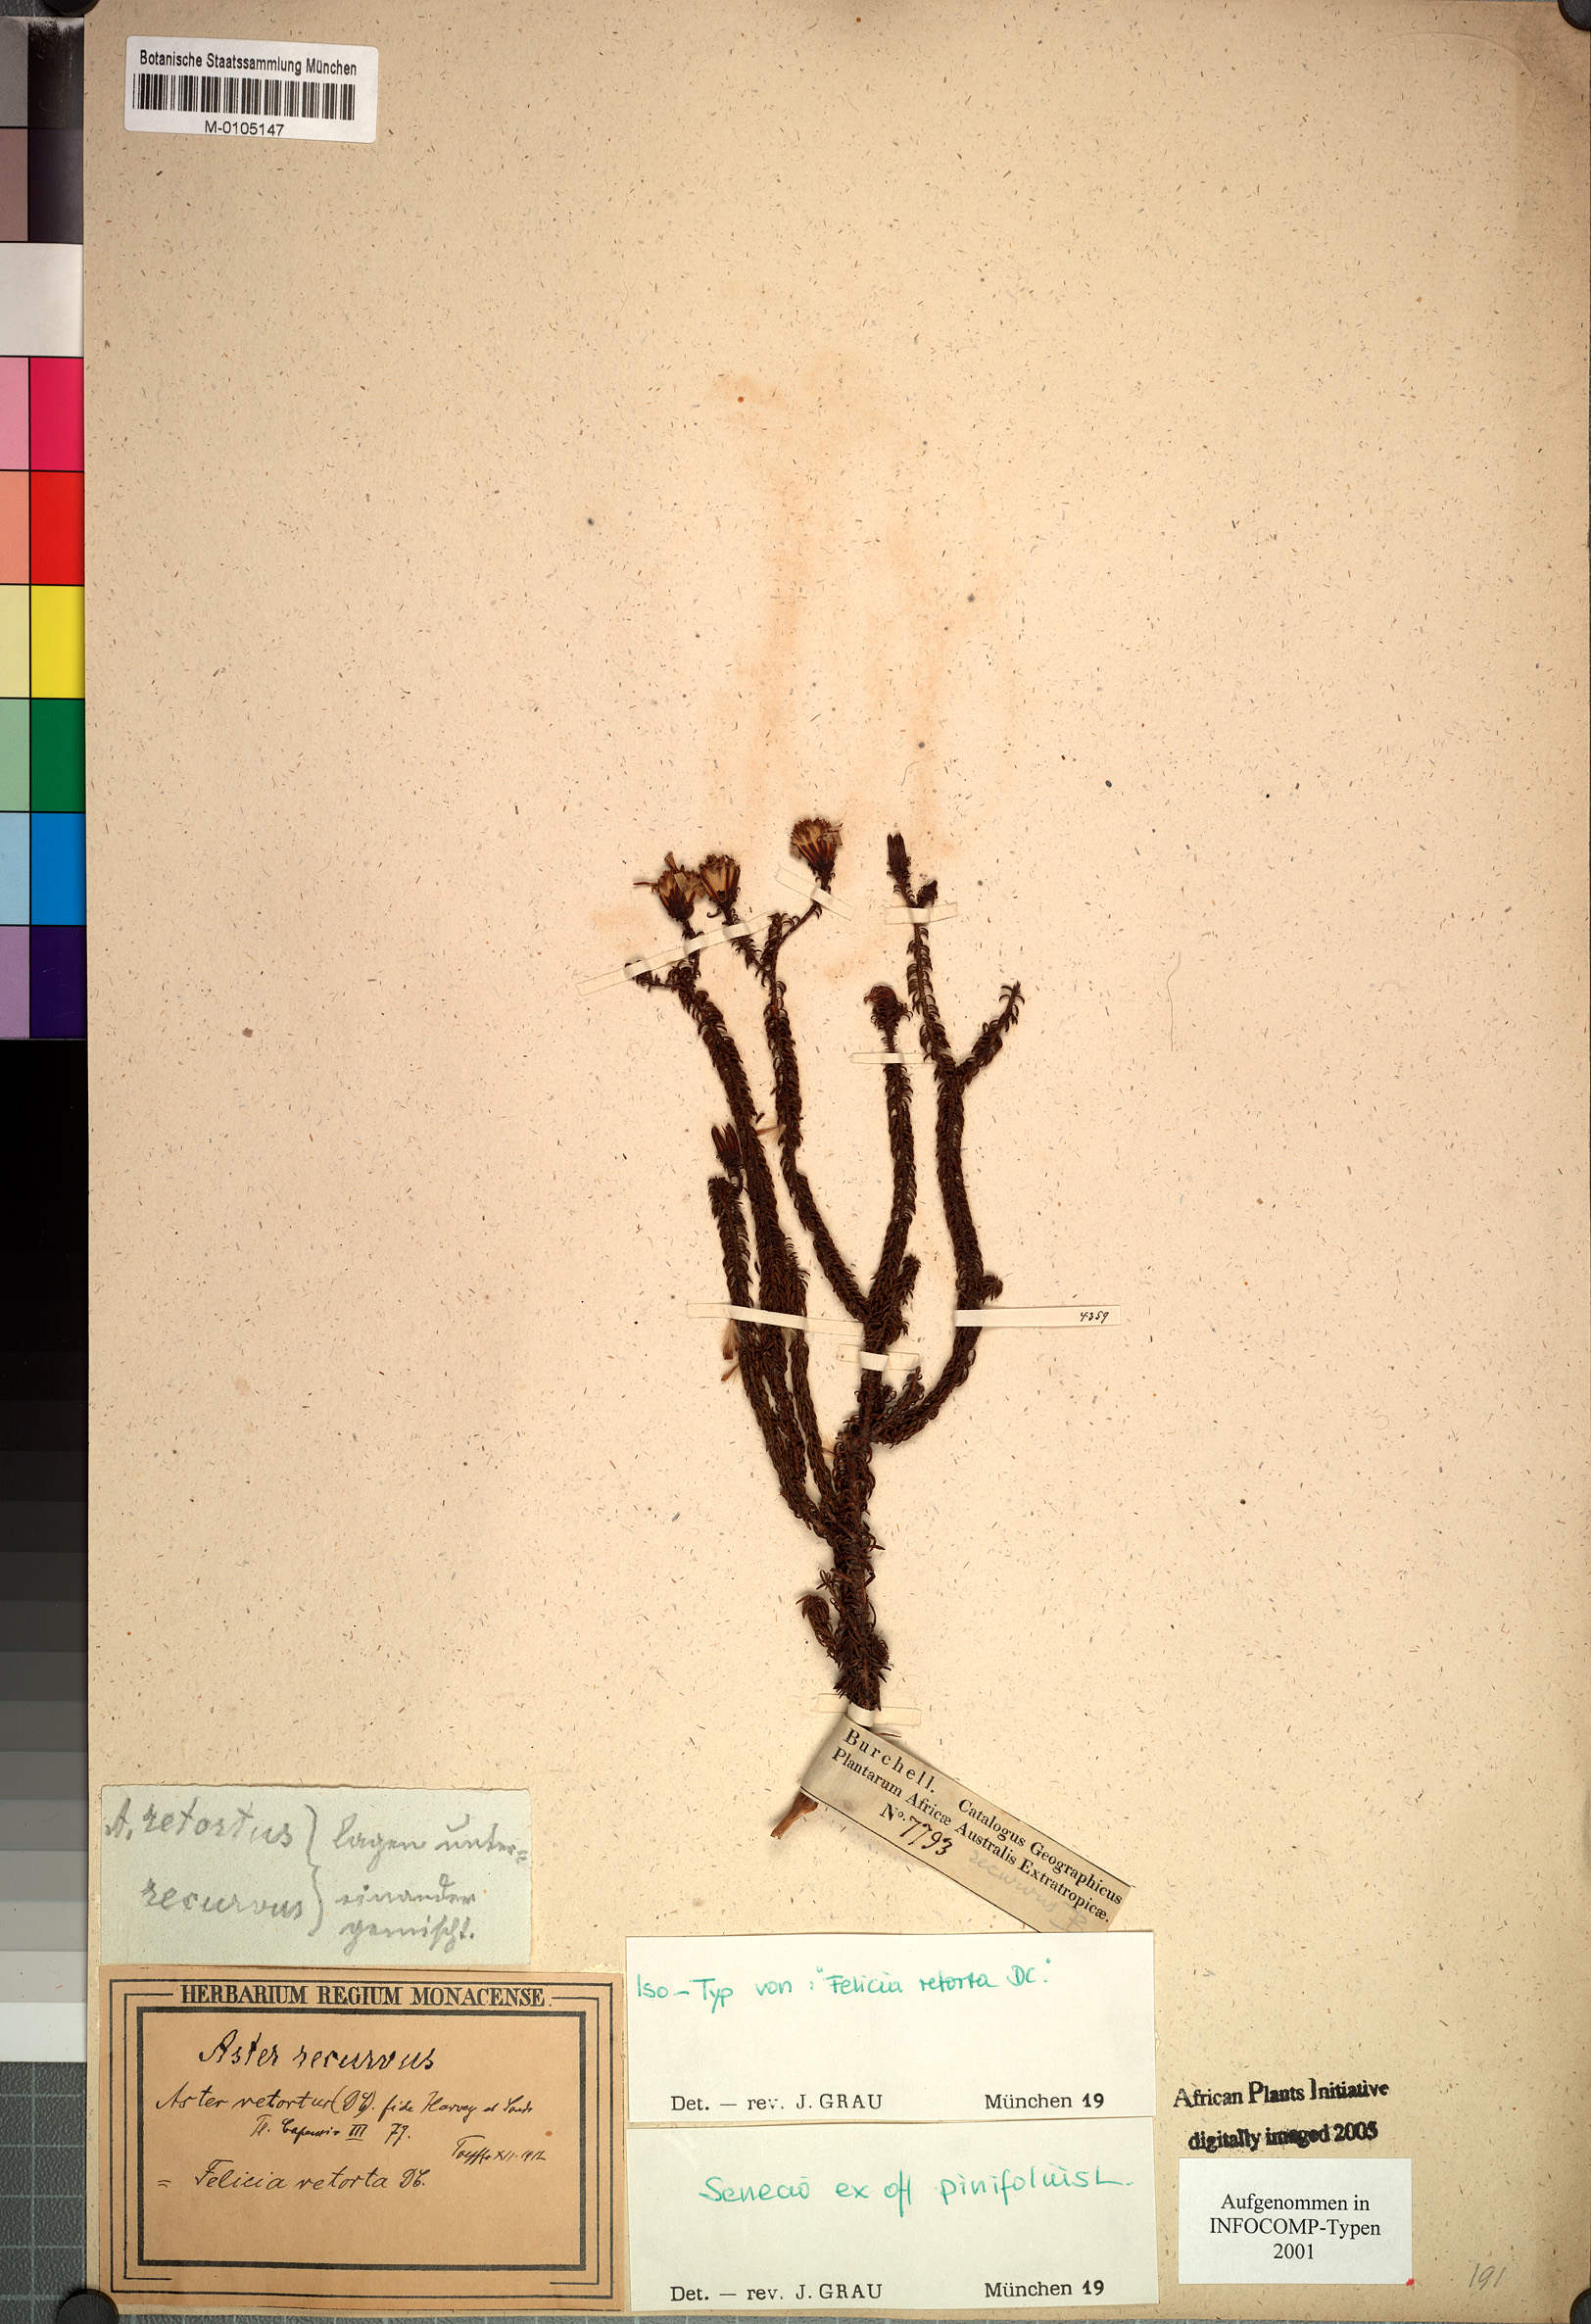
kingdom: Plantae
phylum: Tracheophyta
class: Magnoliopsida
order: Asterales
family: Asteraceae
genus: Senecio
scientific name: Senecio pinifolius
